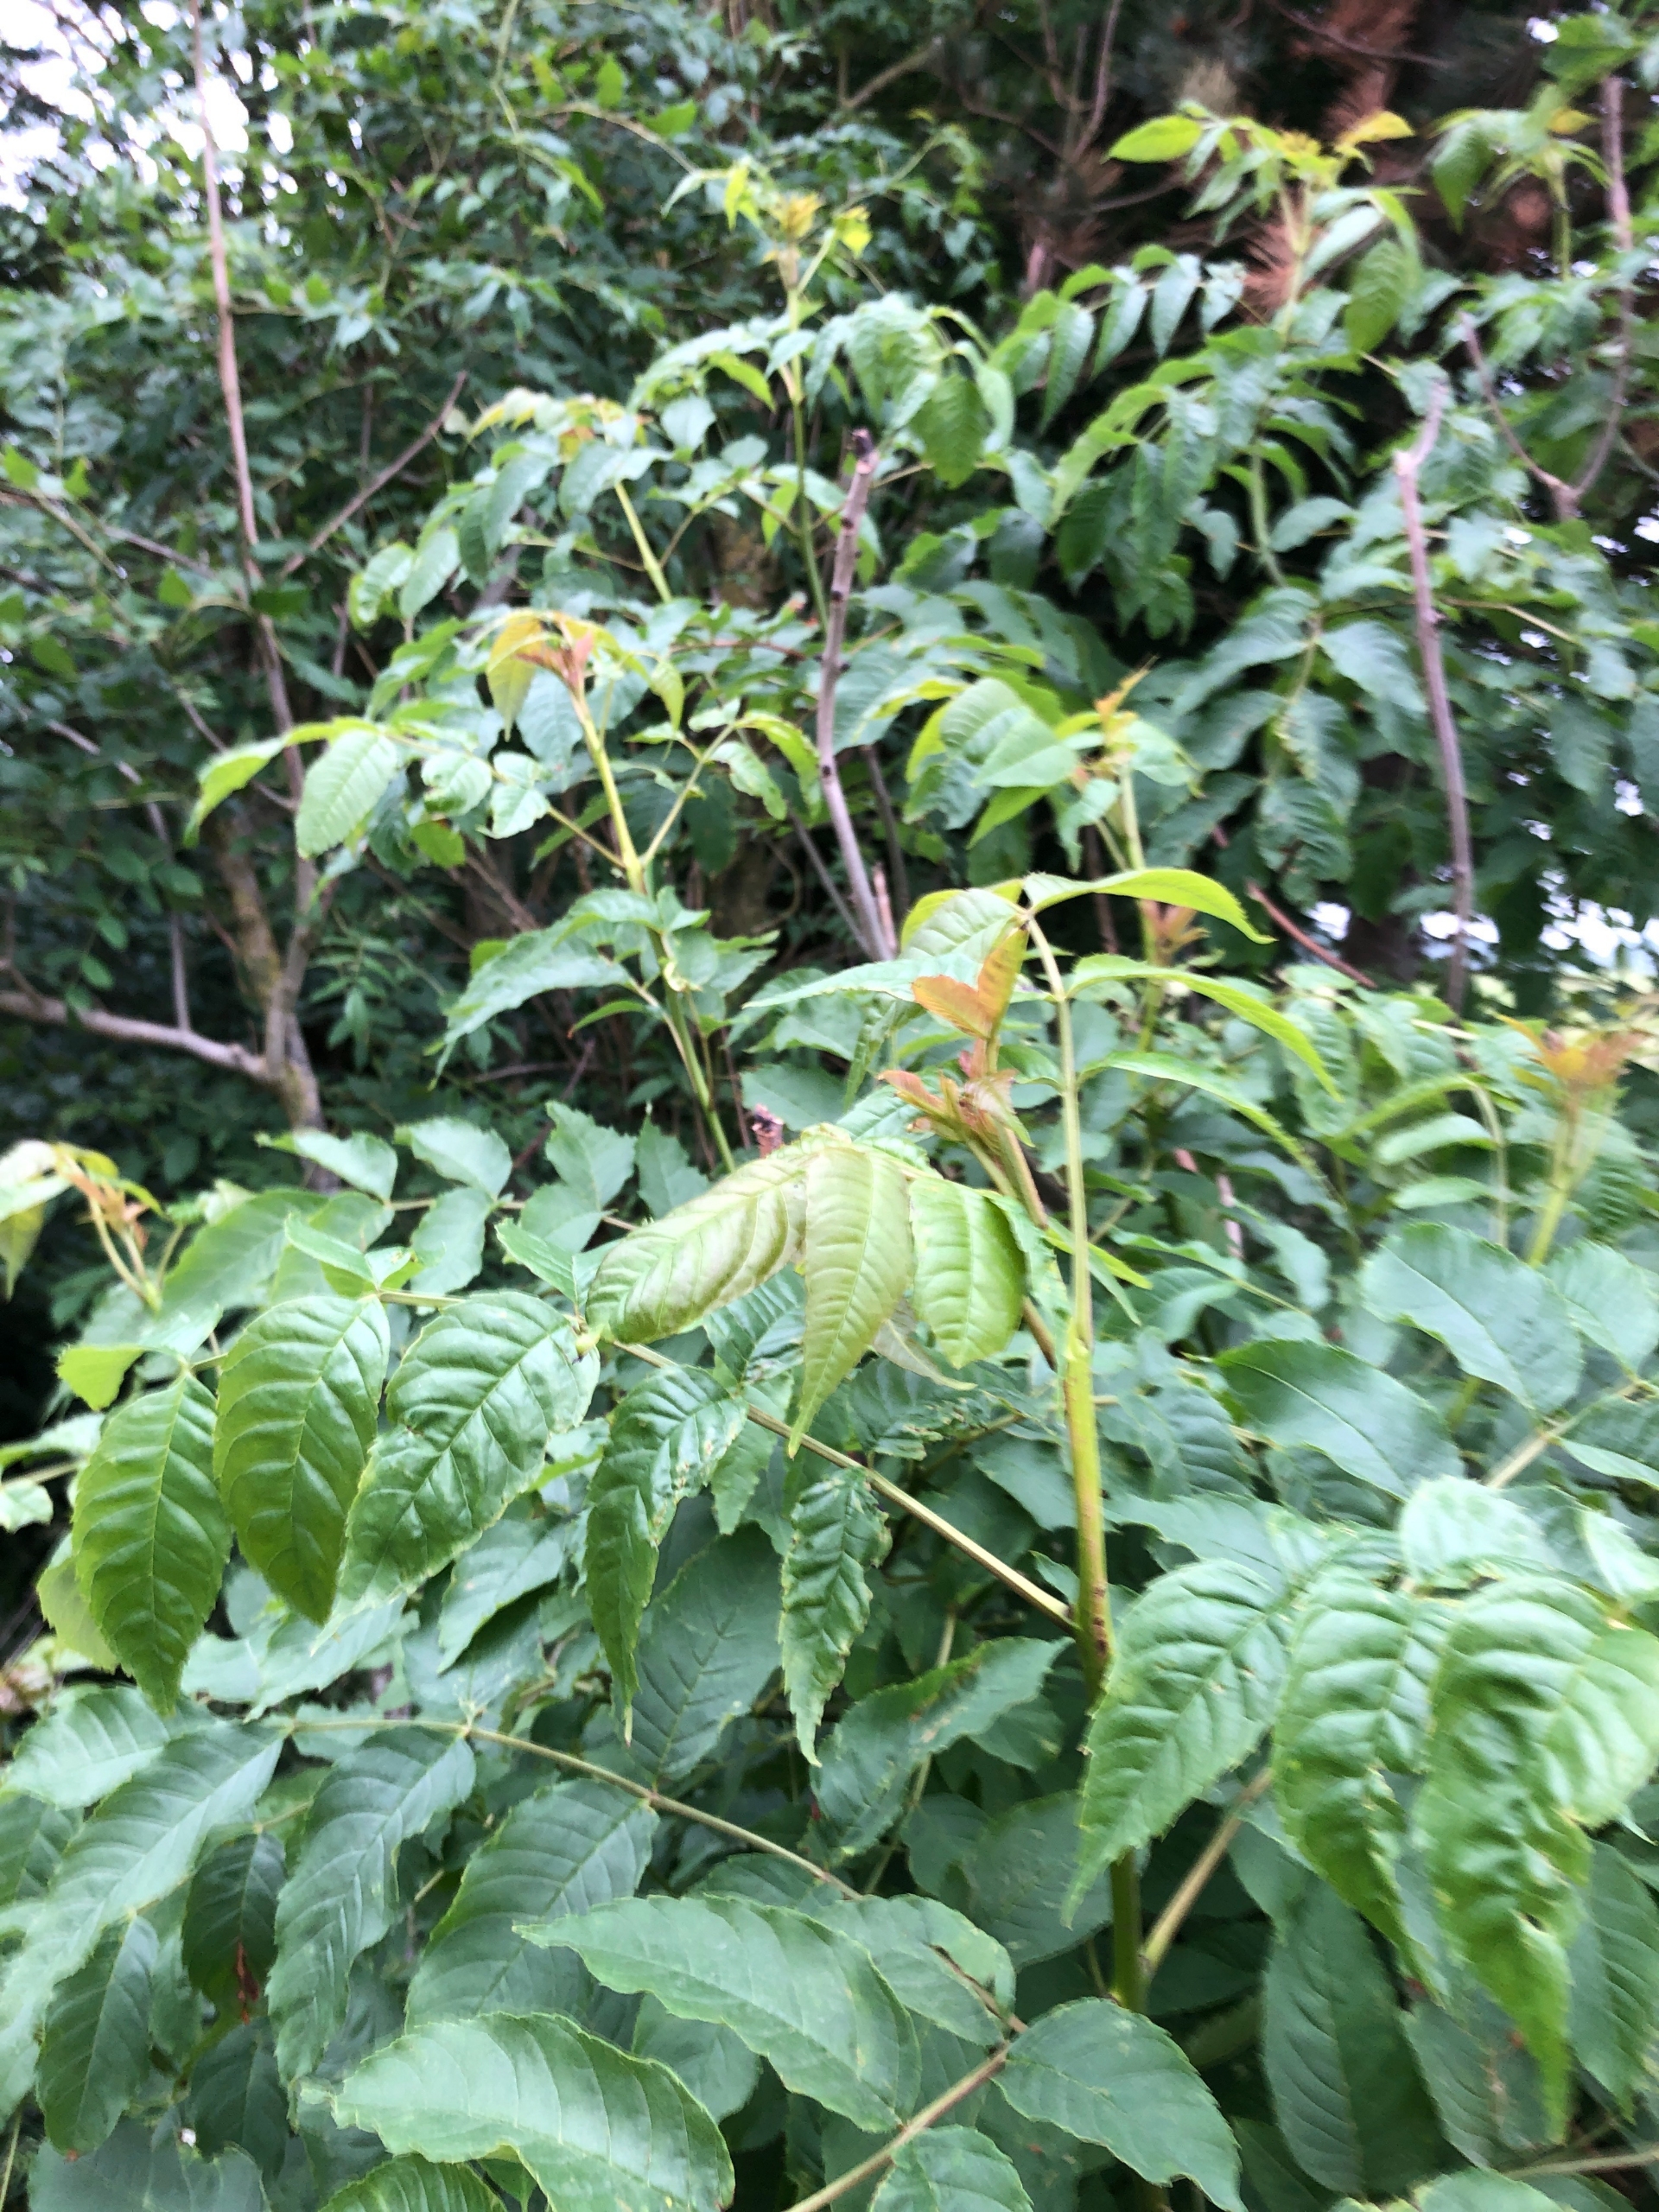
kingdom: Plantae
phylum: Tracheophyta
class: Magnoliopsida
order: Lamiales
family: Oleaceae
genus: Fraxinus
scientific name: Fraxinus excelsior
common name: Ask
